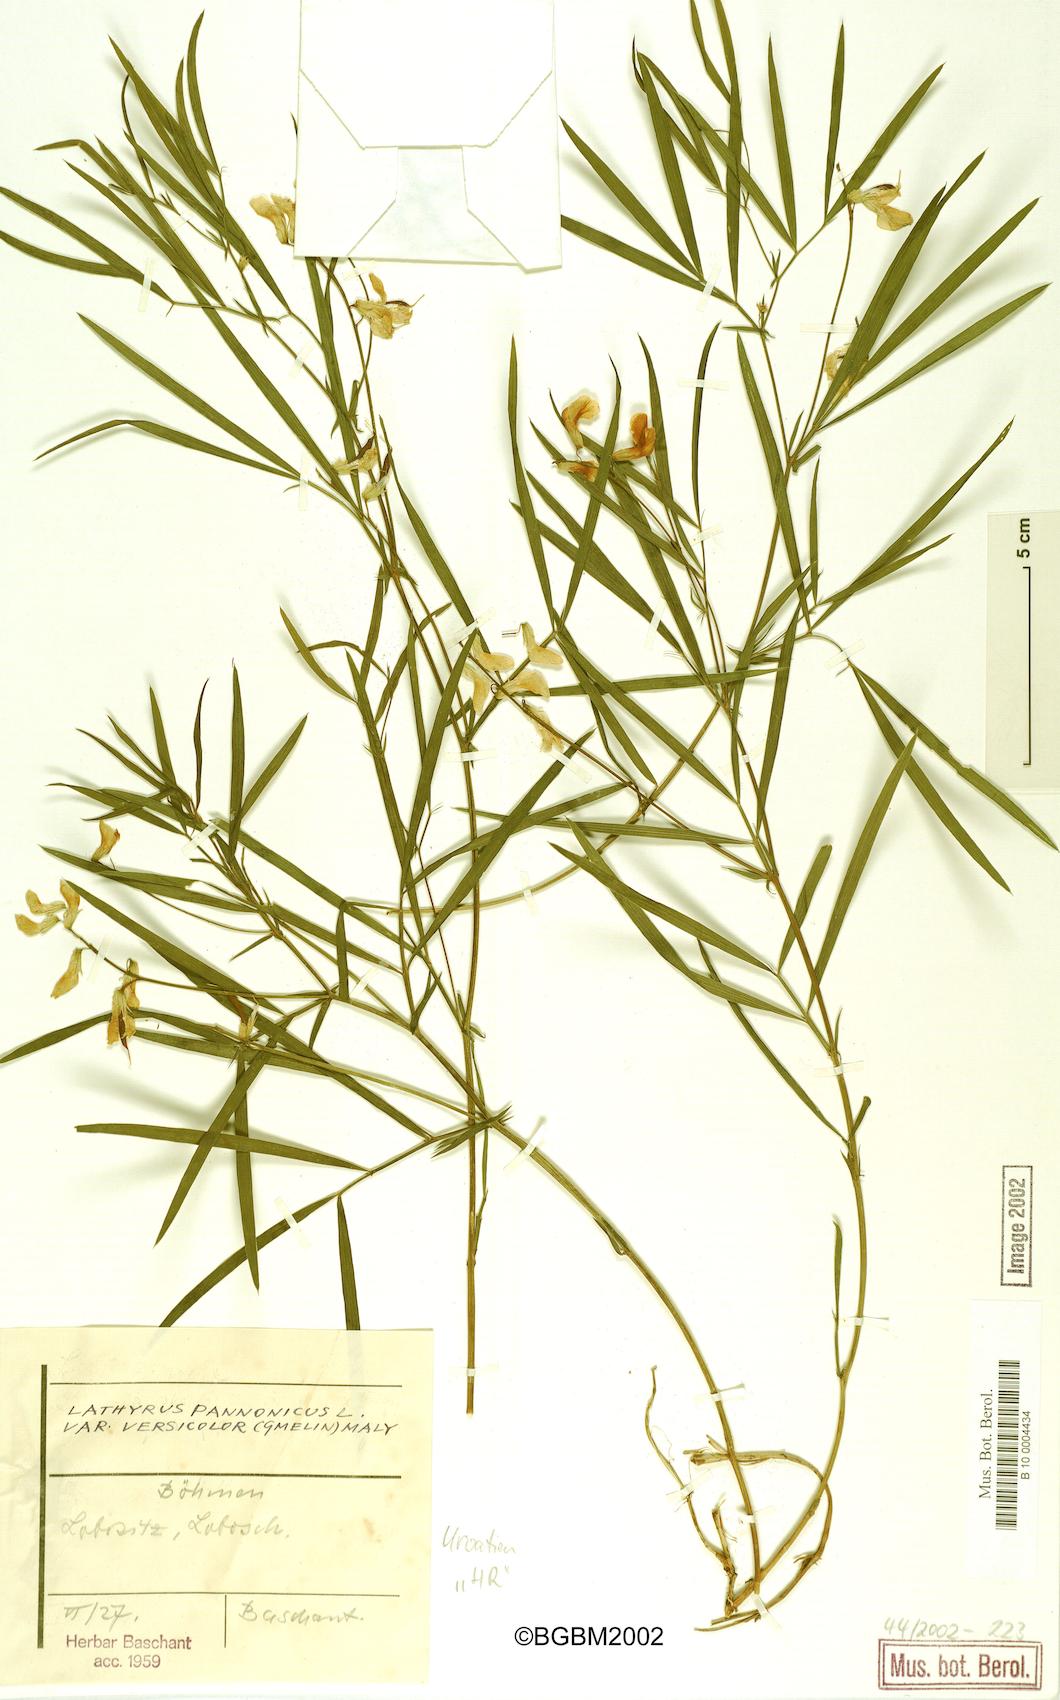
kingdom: Plantae
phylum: Tracheophyta
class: Magnoliopsida
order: Fabales
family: Fabaceae
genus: Lathyrus
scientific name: Lathyrus pannonicus
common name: Pea
